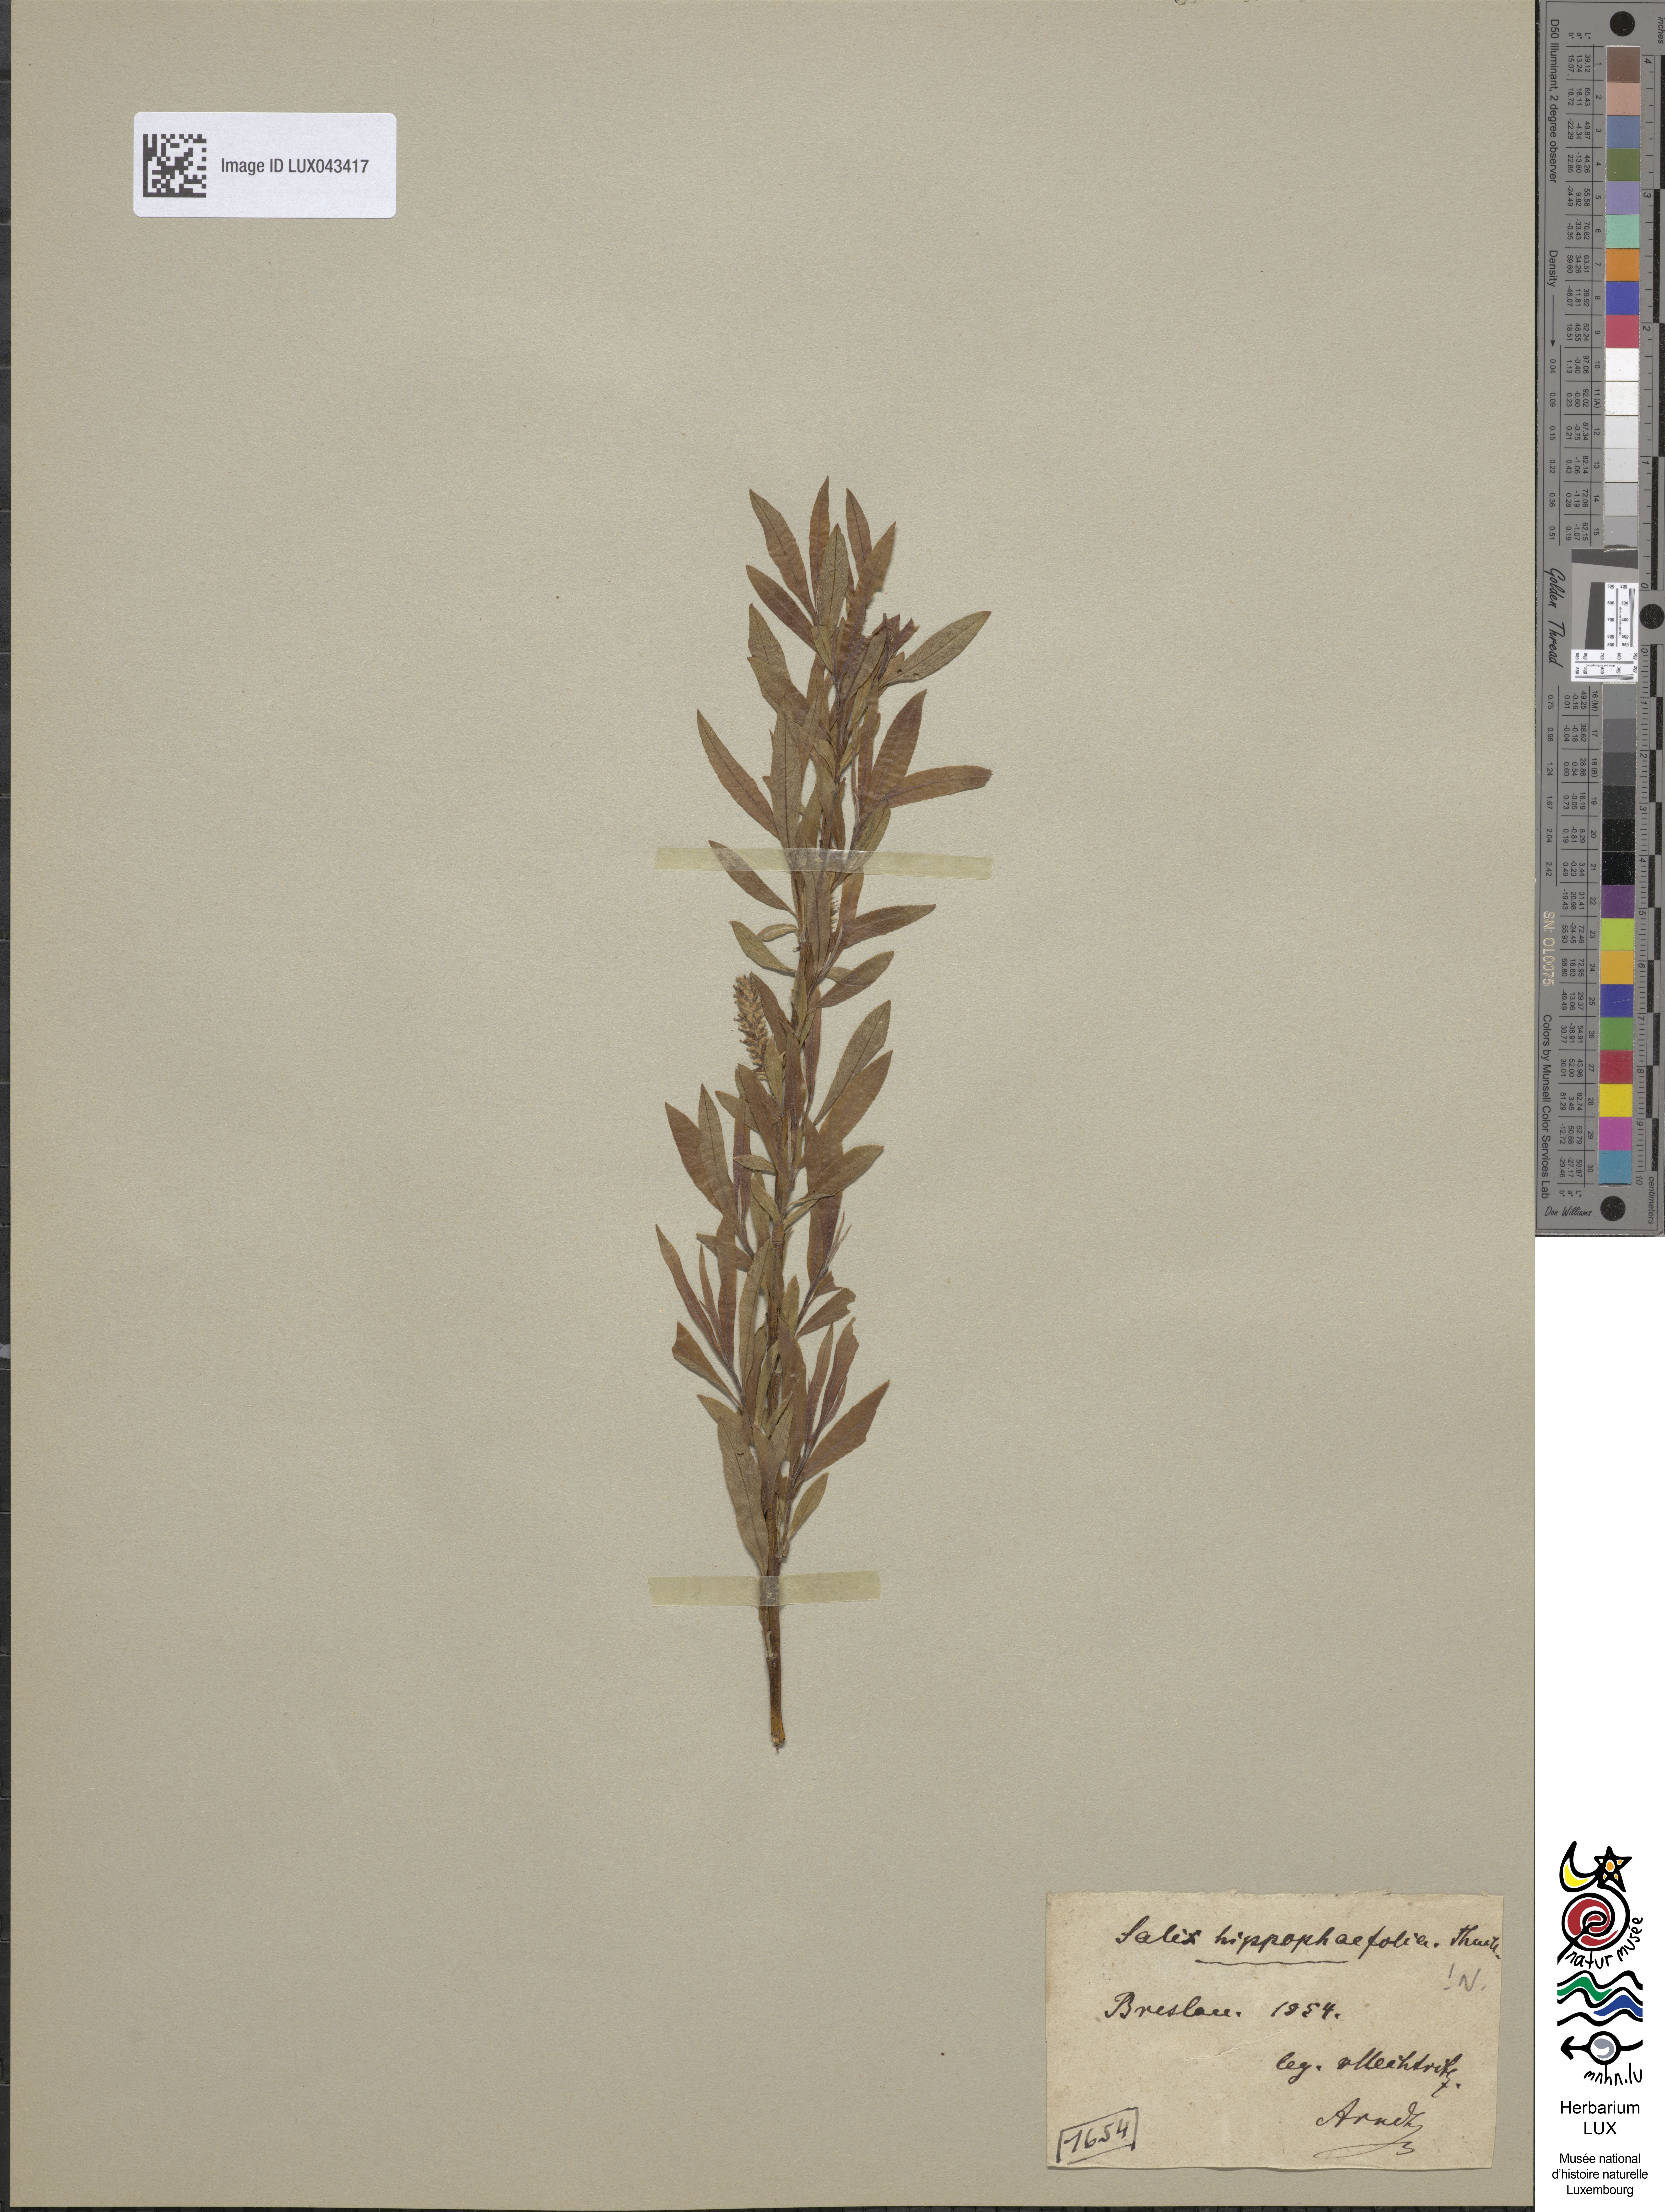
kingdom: Plantae
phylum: Tracheophyta
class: Magnoliopsida
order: Malpighiales
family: Salicaceae
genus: Salix
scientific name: Salix
